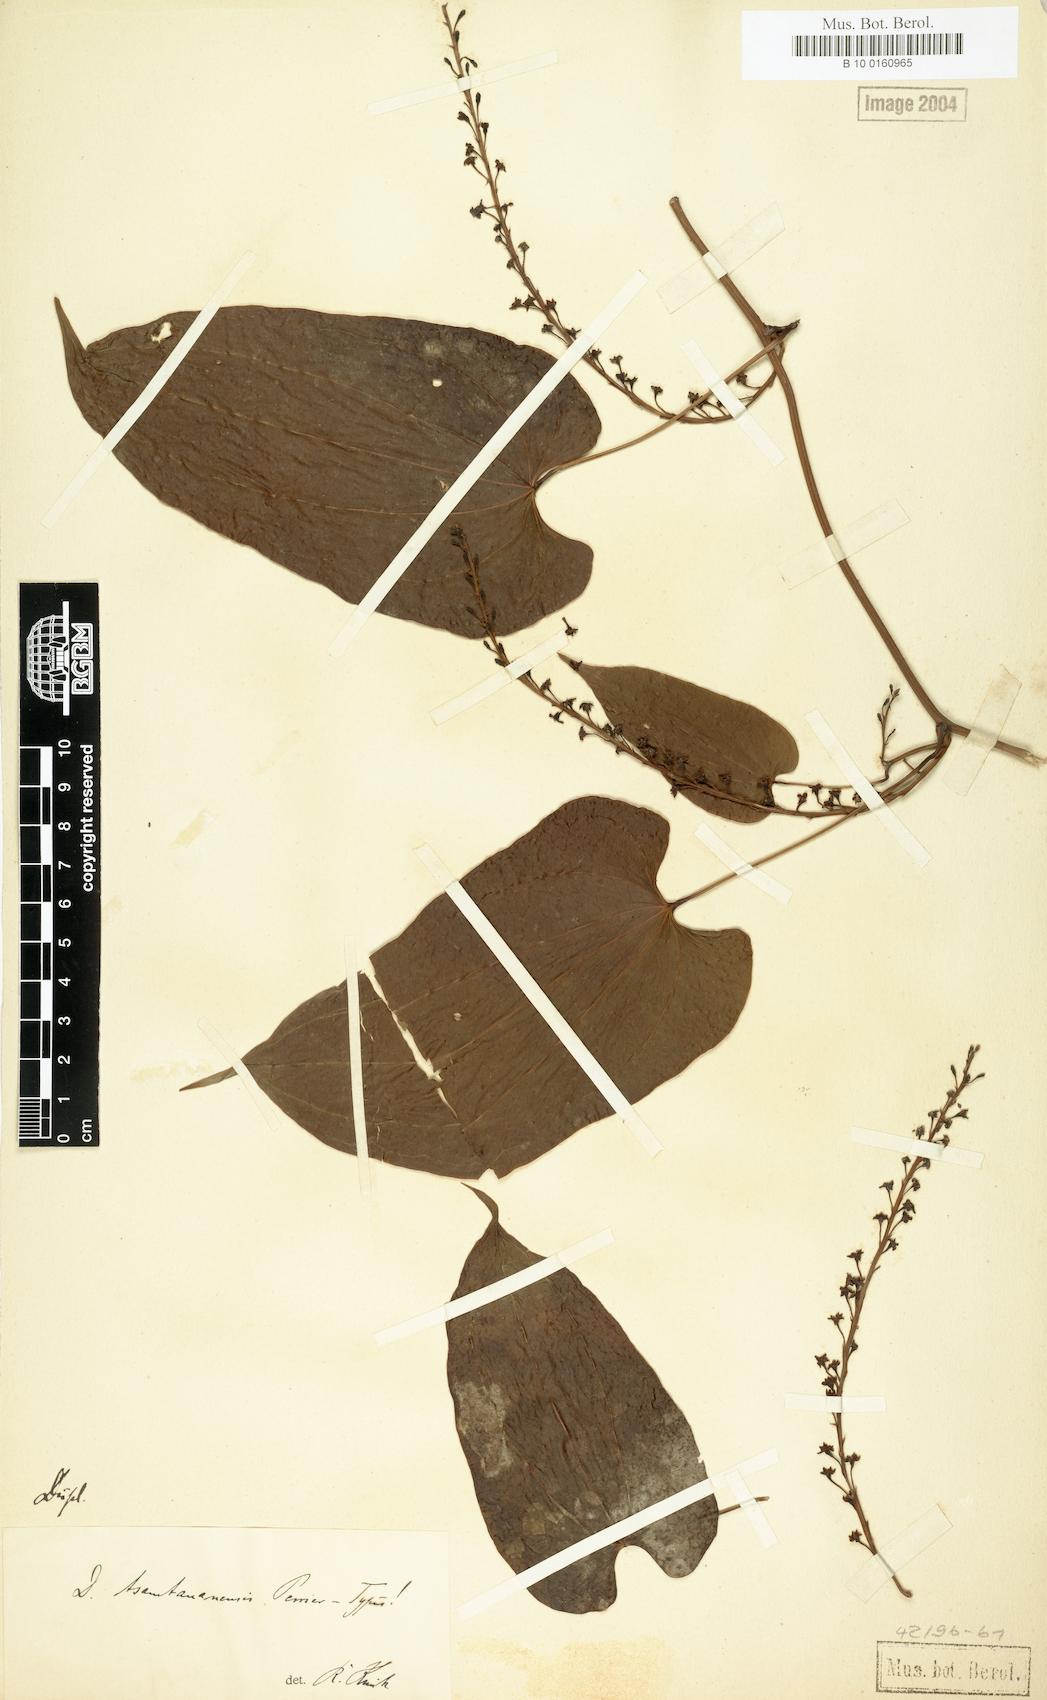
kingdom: Plantae
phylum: Tracheophyta
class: Liliopsida
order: Dioscoreales
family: Dioscoreaceae
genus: Dioscorea
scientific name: Dioscorea tsaratananensis
